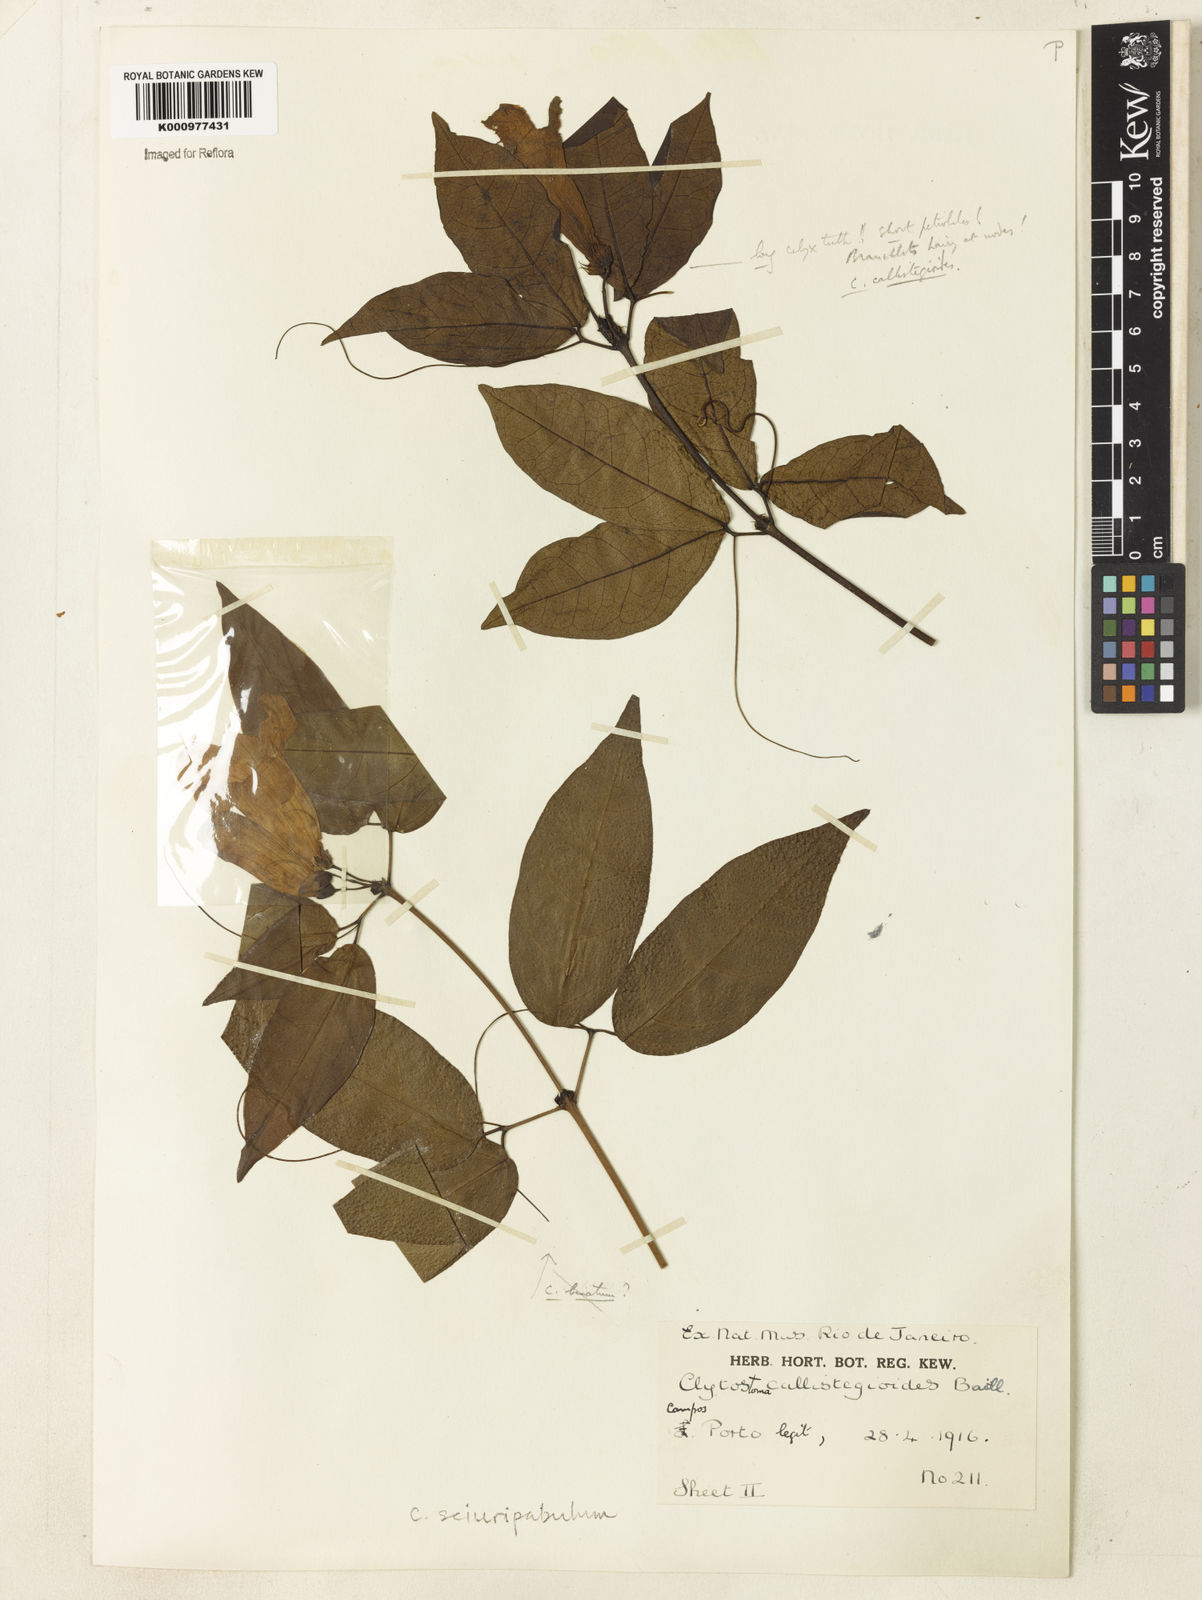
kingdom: Plantae
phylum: Tracheophyta
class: Magnoliopsida
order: Lamiales
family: Bignoniaceae
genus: Bignonia
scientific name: Bignonia
